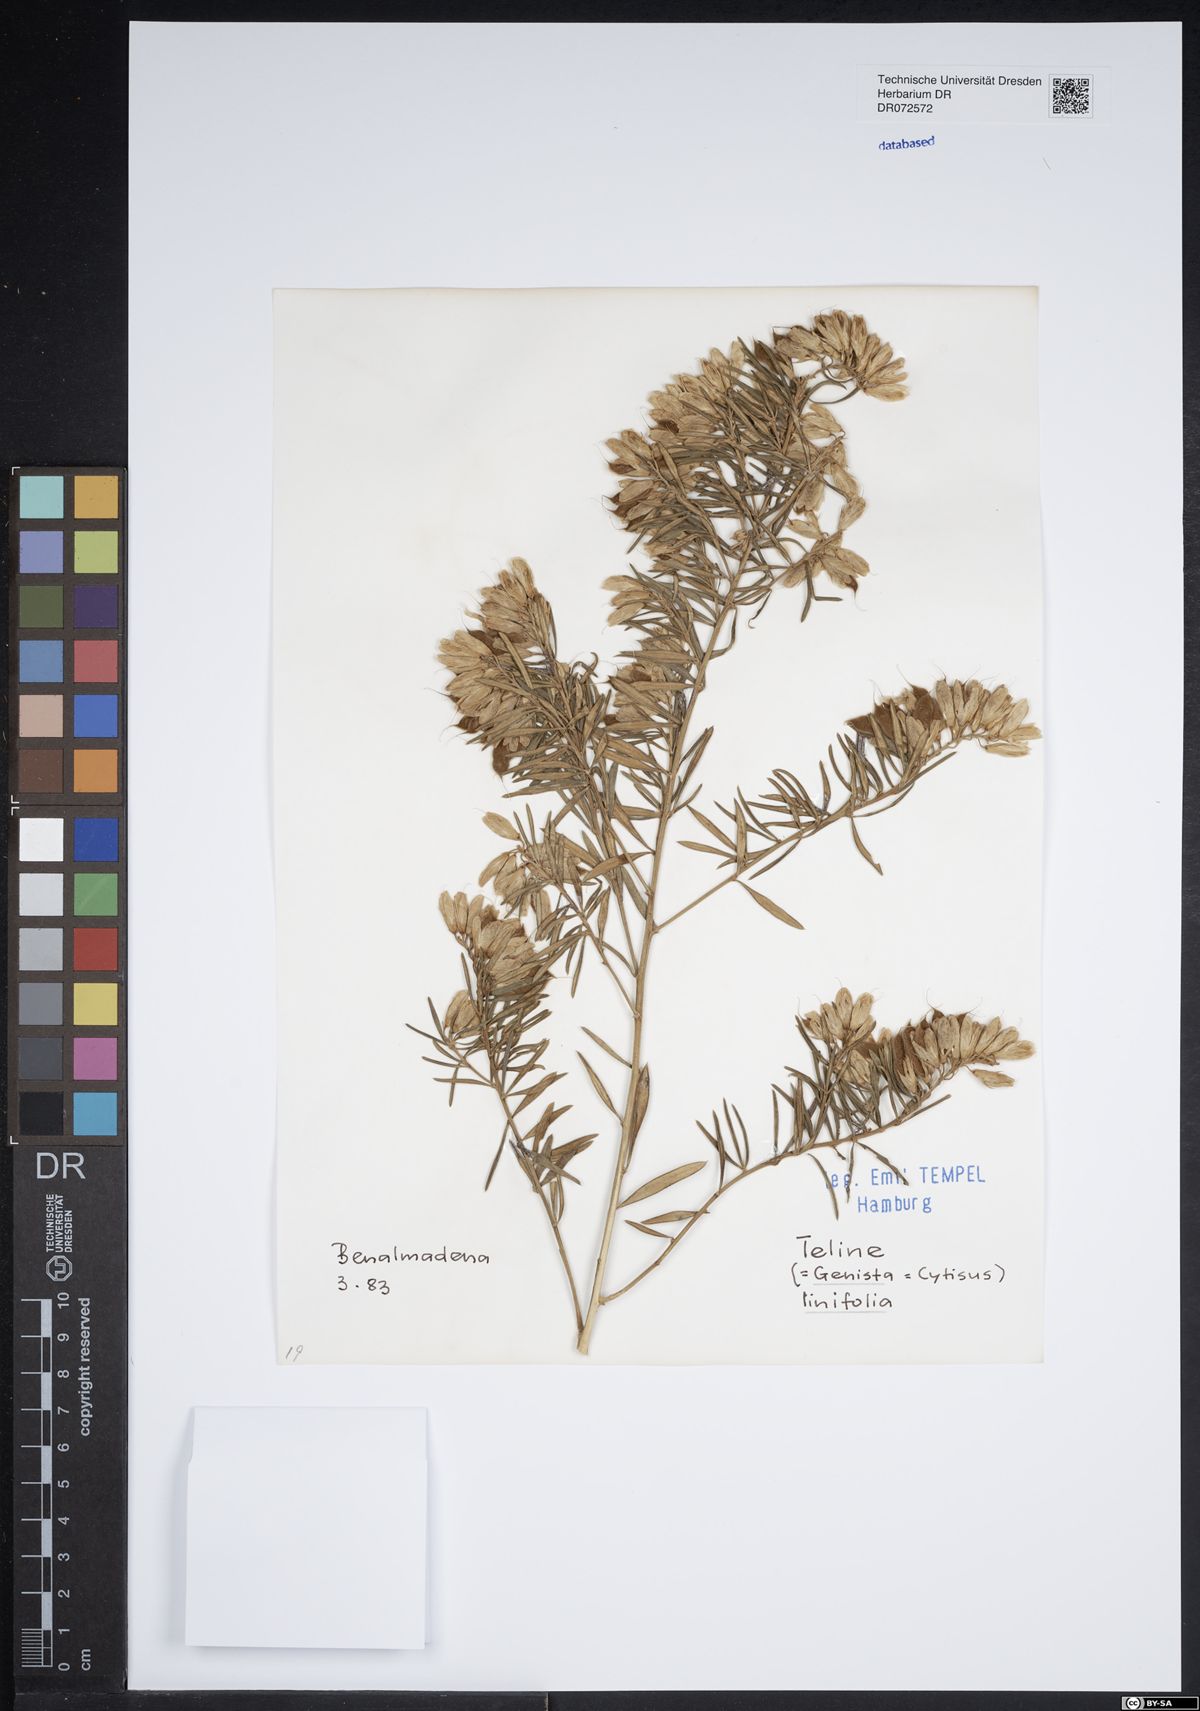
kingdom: Plantae
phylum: Tracheophyta
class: Magnoliopsida
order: Fabales
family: Fabaceae
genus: Genista
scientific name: Genista linifolia
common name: Mediterranean broom
